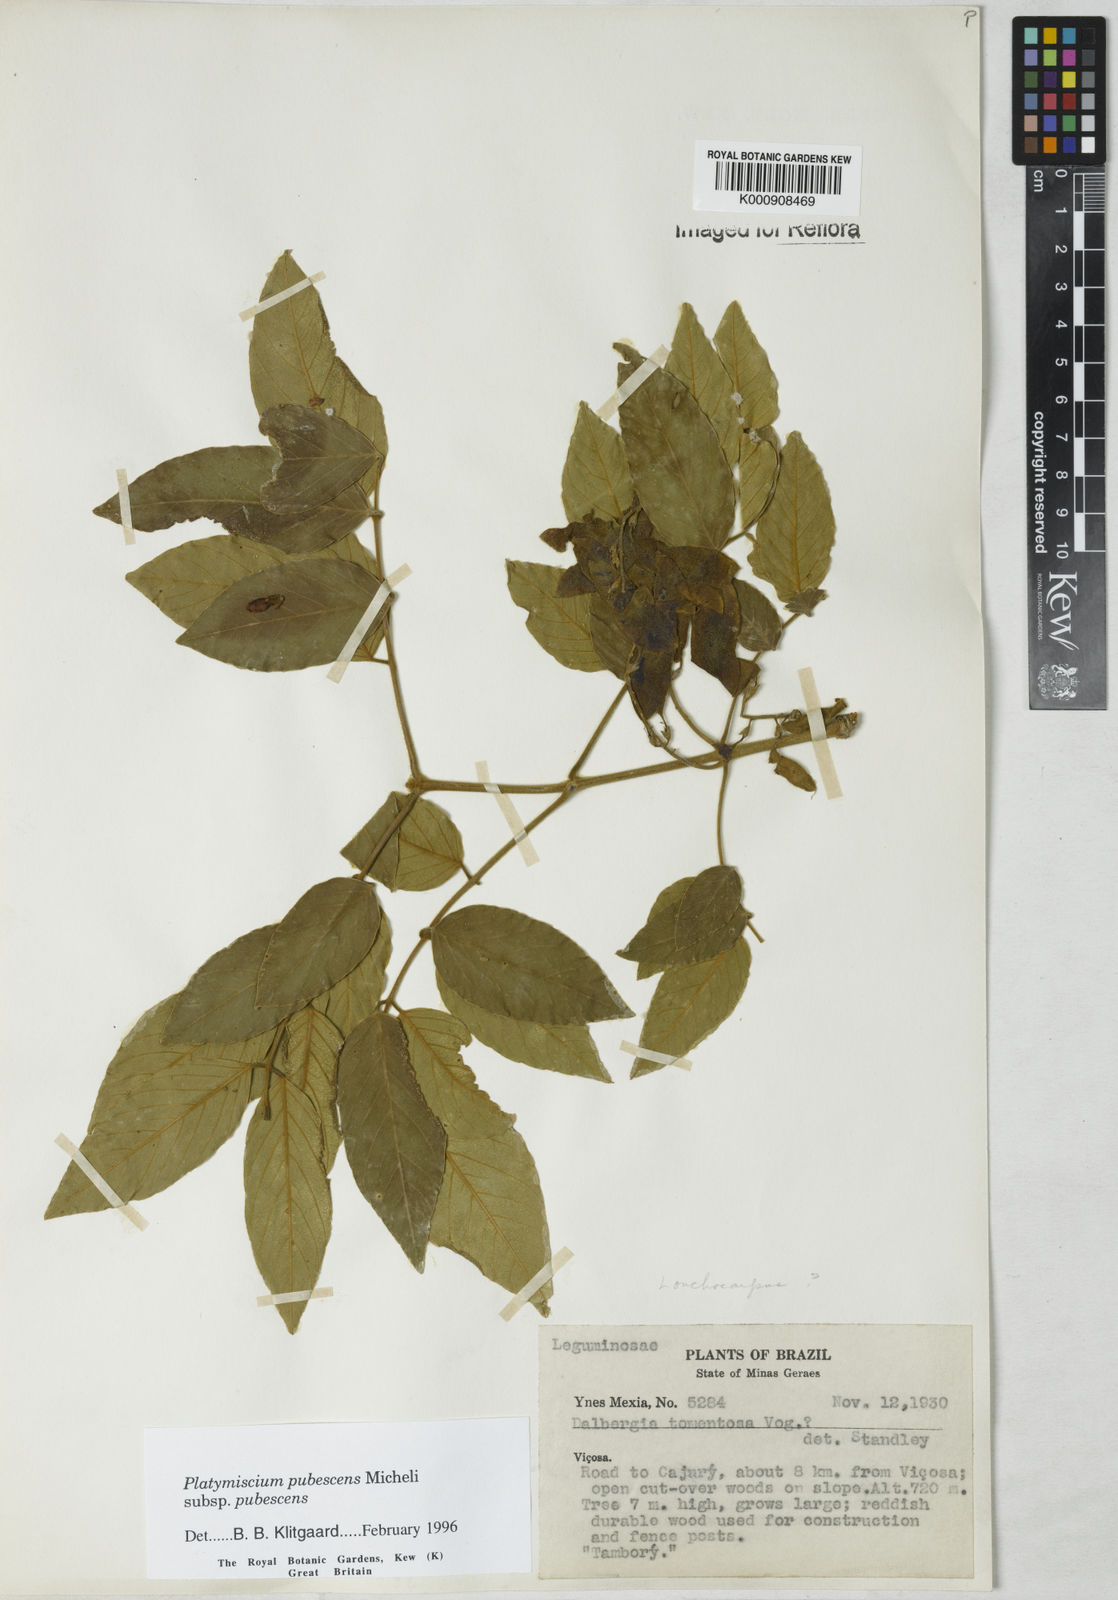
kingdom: Plantae
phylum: Tracheophyta
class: Magnoliopsida
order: Fabales
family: Fabaceae
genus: Platymiscium
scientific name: Platymiscium pubescens
